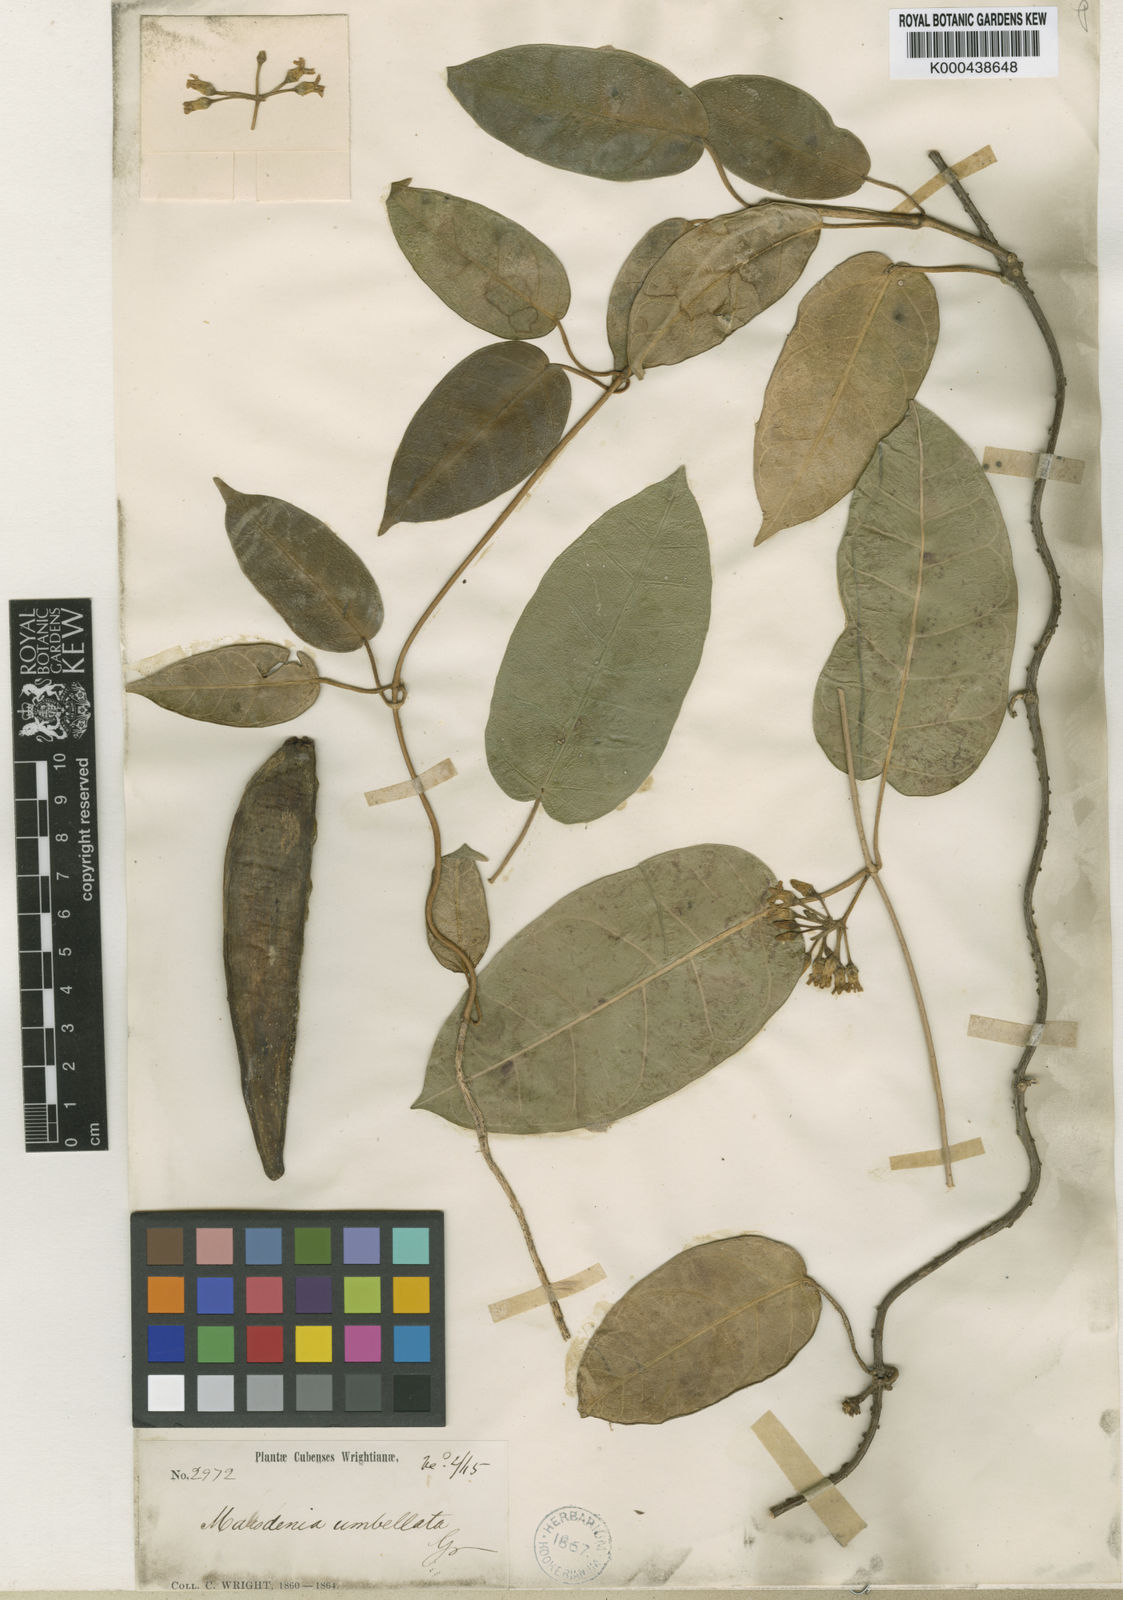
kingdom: Plantae
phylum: Tracheophyta
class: Magnoliopsida
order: Gentianales
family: Apocynaceae
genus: Ruehssia
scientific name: Ruehssia umbellata
